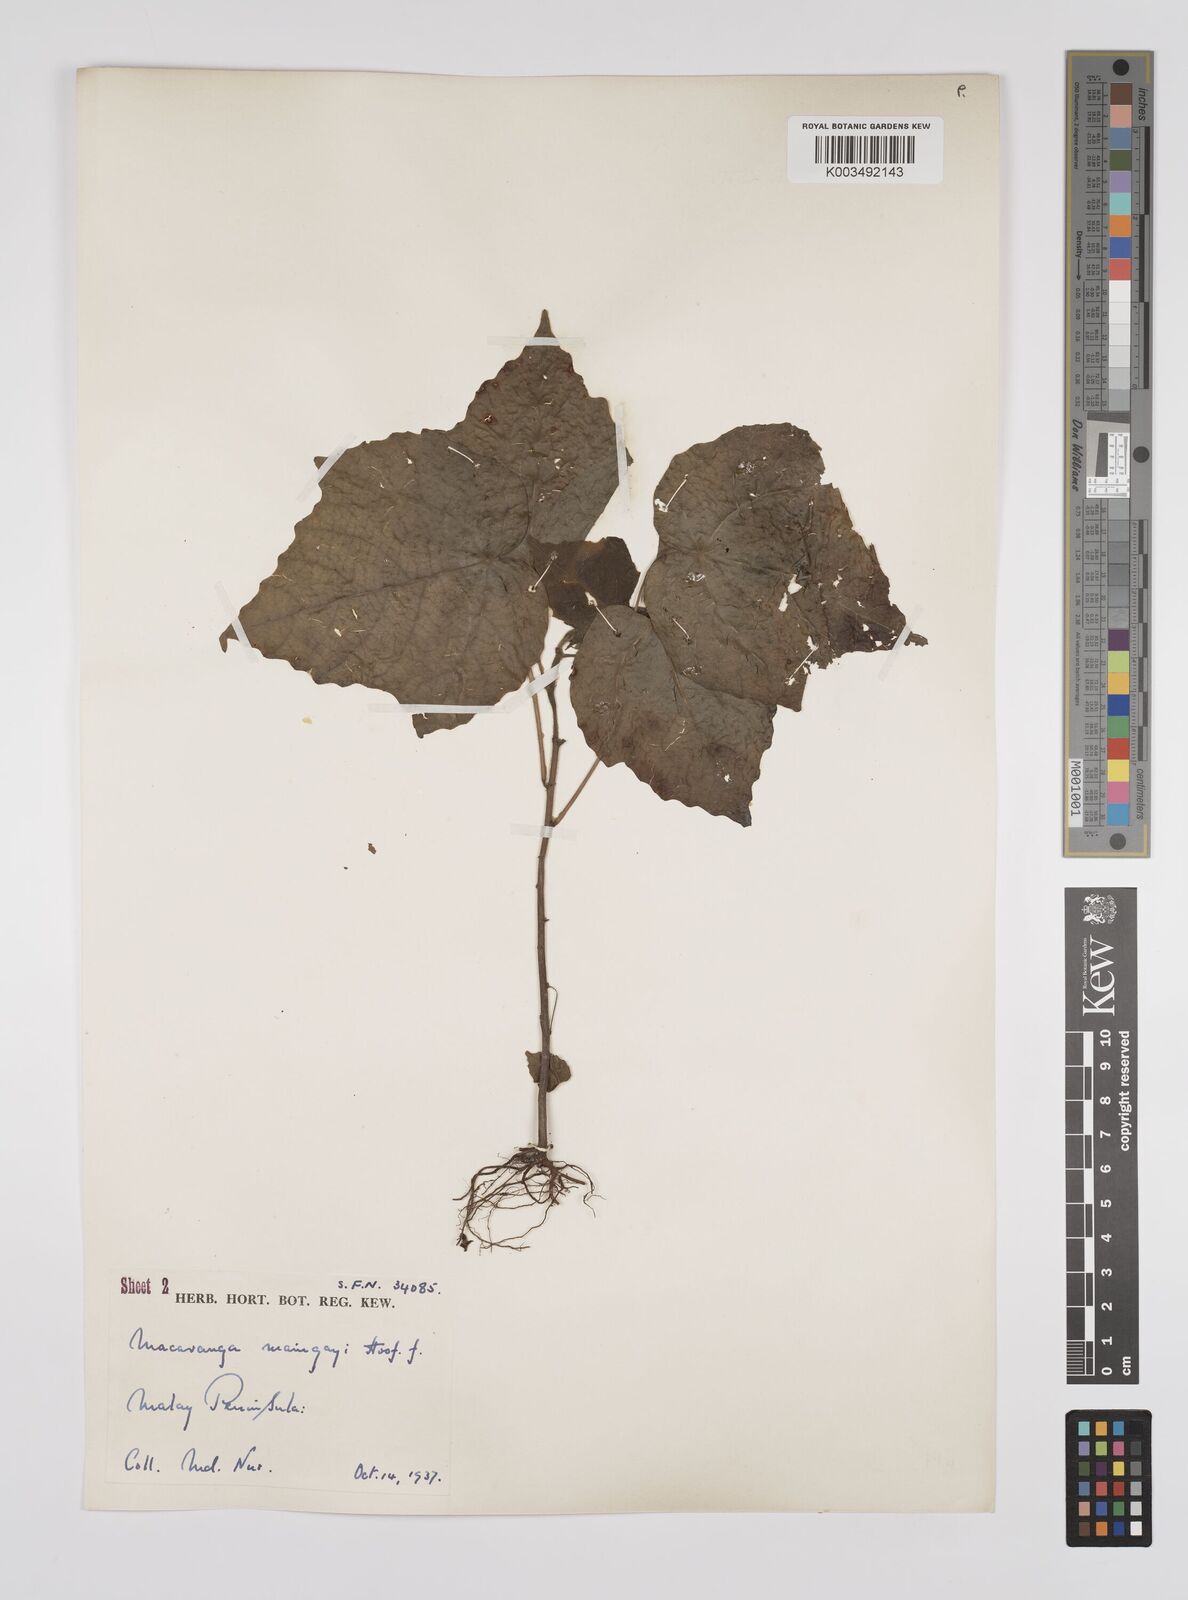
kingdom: Plantae
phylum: Tracheophyta
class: Magnoliopsida
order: Malpighiales
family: Euphorbiaceae
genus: Macaranga
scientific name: Macaranga pruinosa
